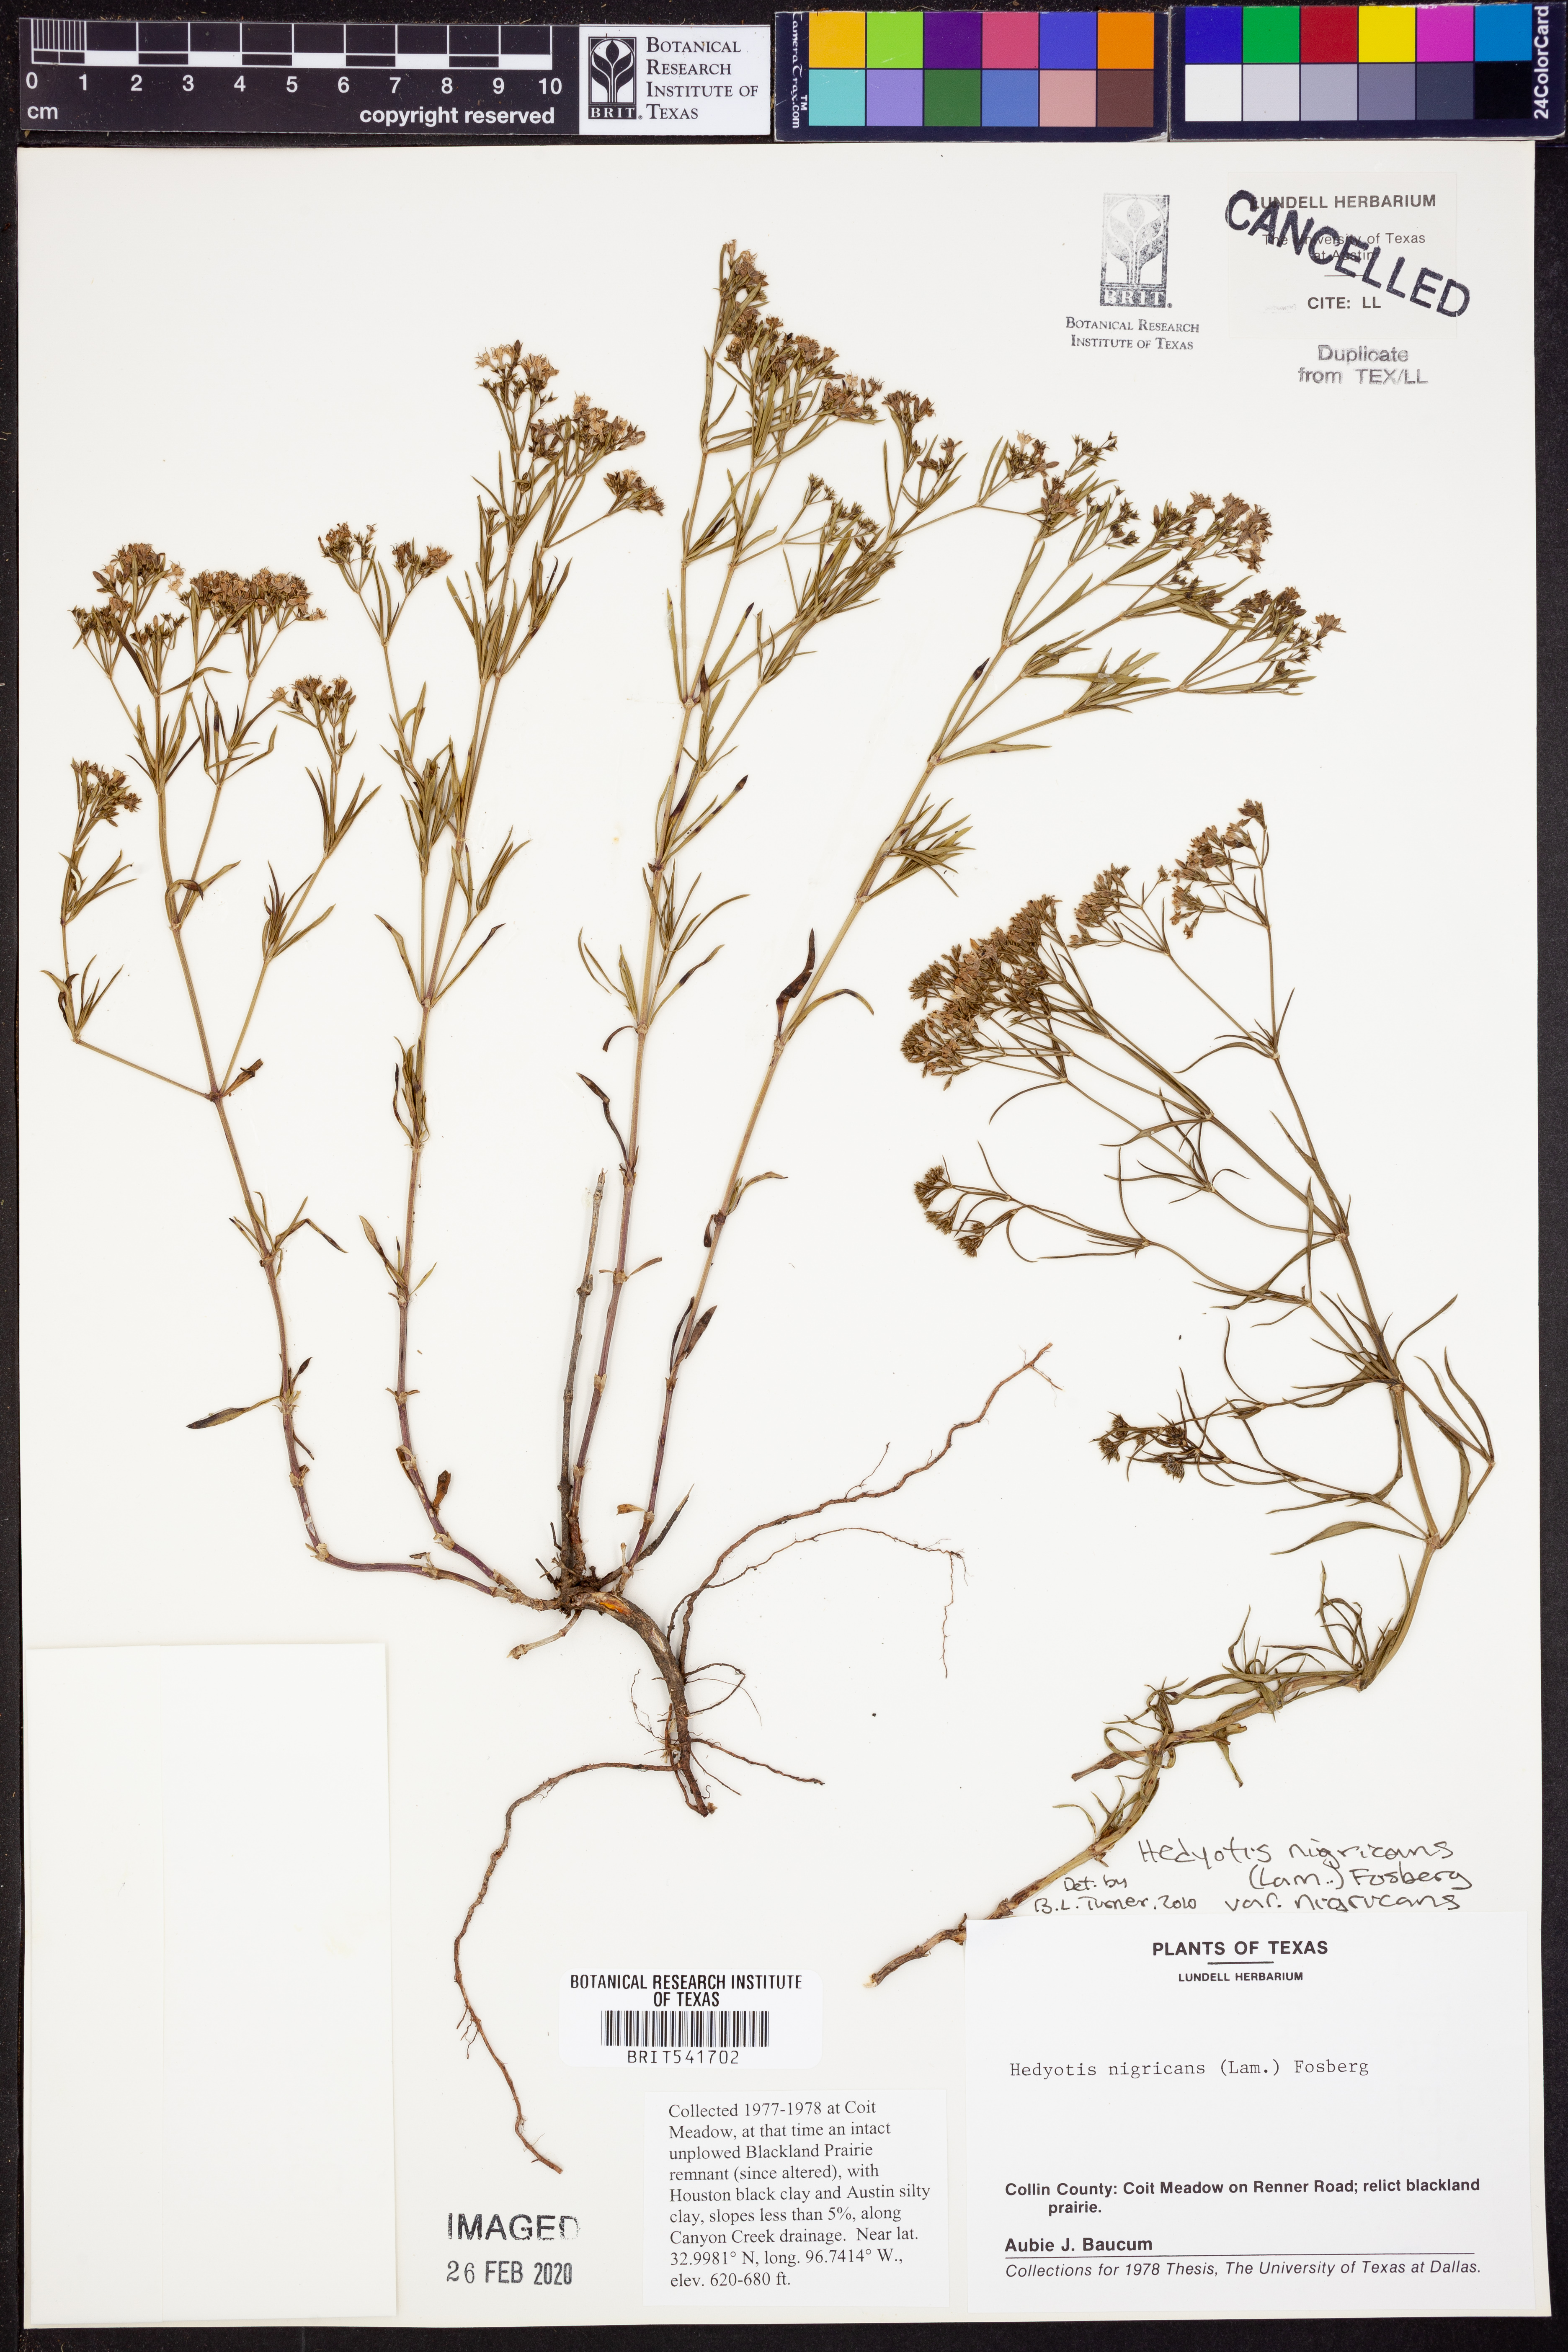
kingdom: Plantae
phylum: Tracheophyta
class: Magnoliopsida
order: Gentianales
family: Rubiaceae
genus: Stenaria
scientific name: Stenaria nigricans
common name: Diamondflowers
